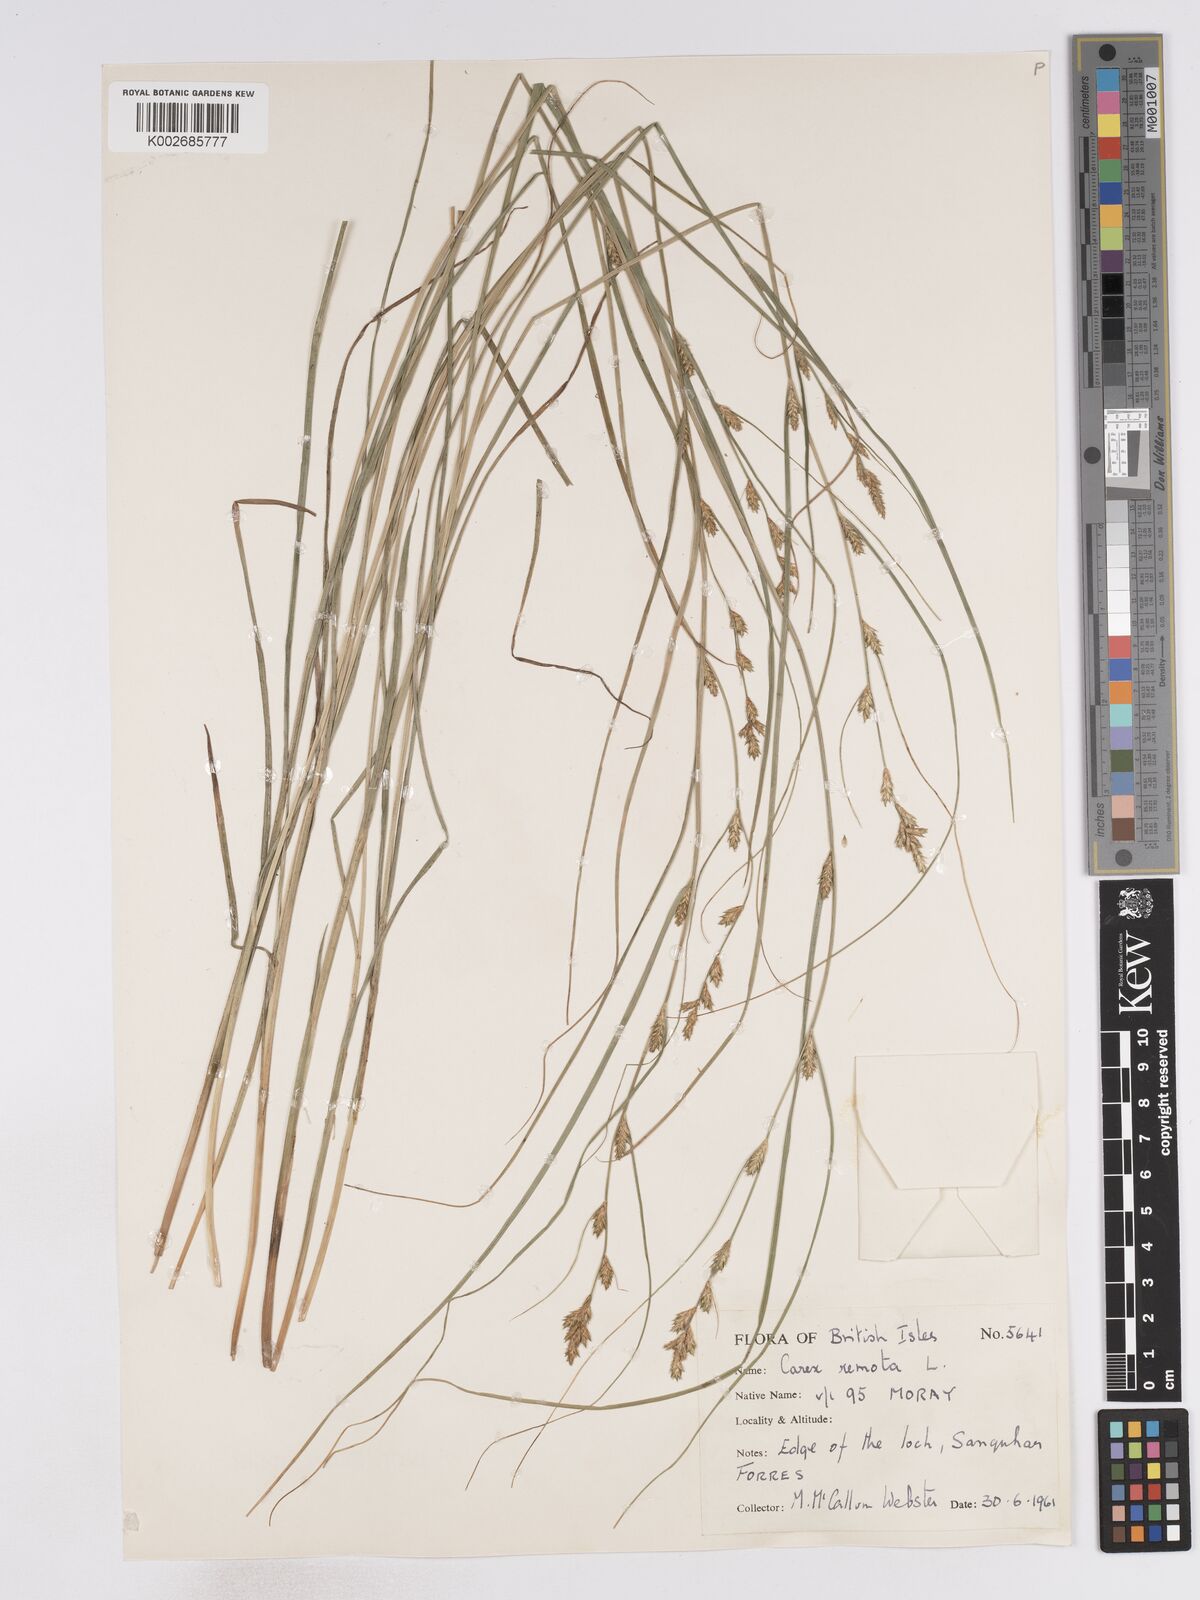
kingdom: Plantae
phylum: Tracheophyta
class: Liliopsida
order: Poales
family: Cyperaceae
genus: Carex
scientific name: Carex remota
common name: Remote sedge
